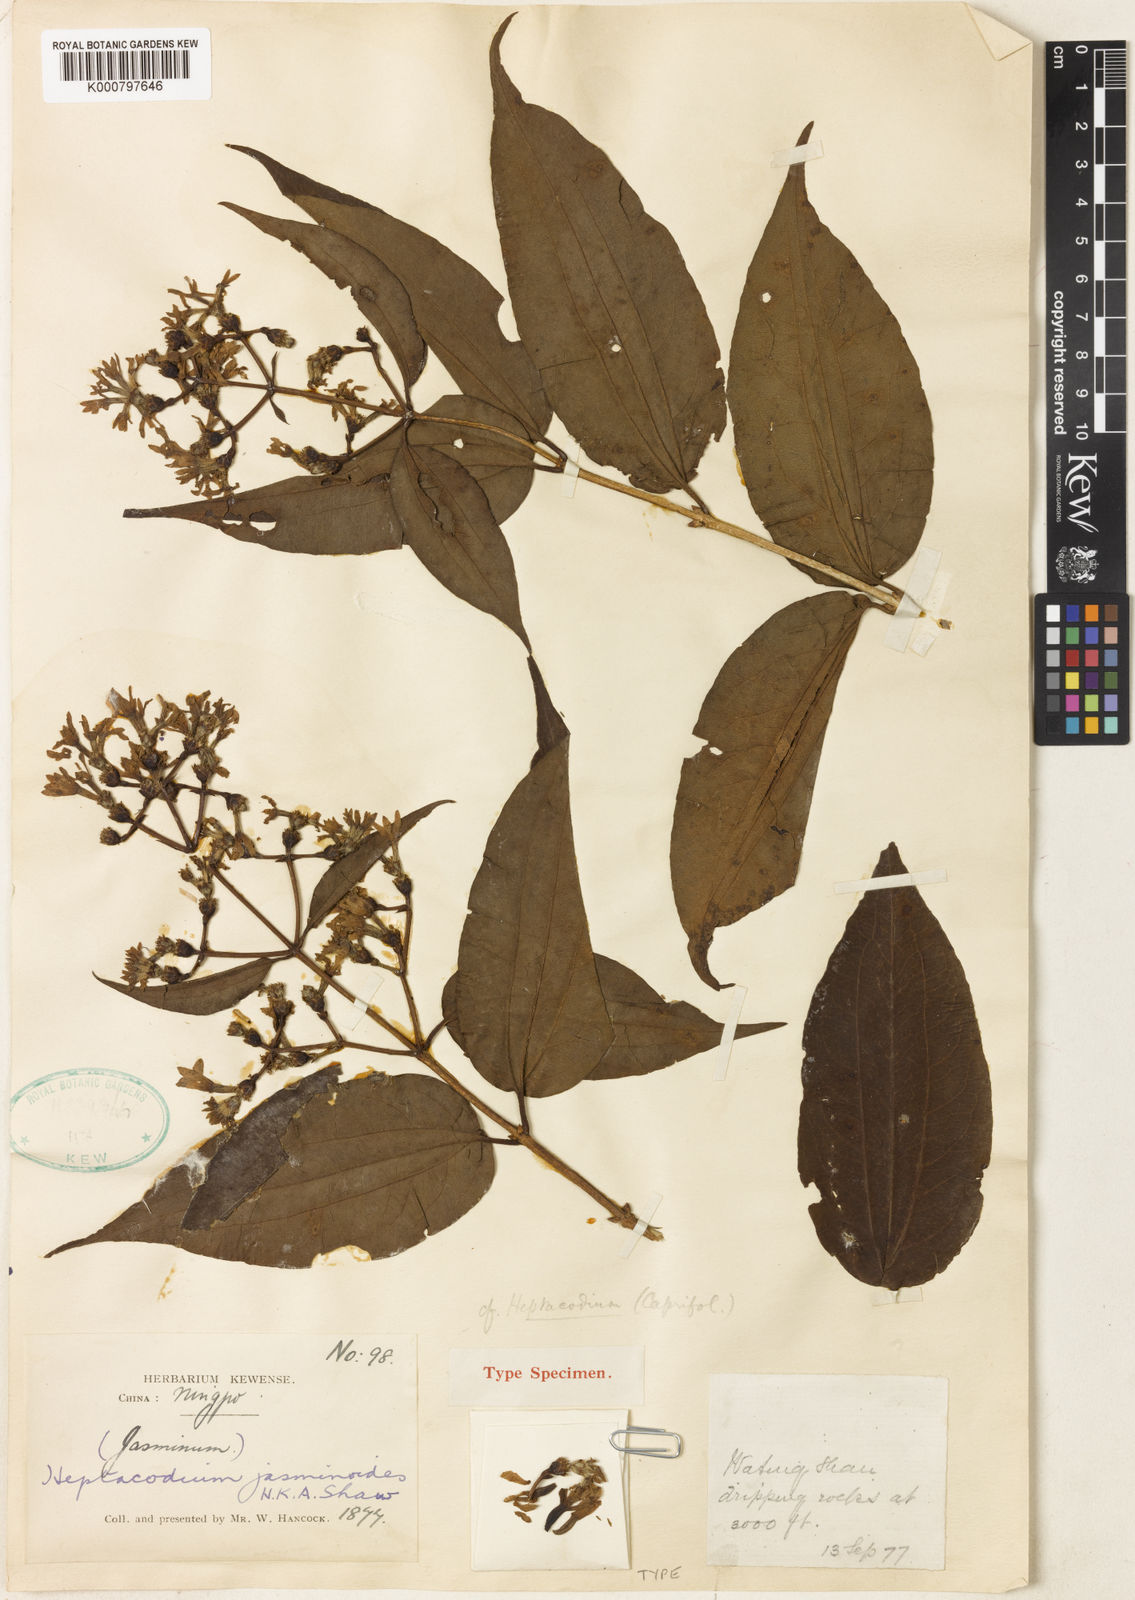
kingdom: Plantae
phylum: Tracheophyta
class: Magnoliopsida
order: Dipsacales
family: Caprifoliaceae
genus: Heptacodium
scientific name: Heptacodium miconioides
